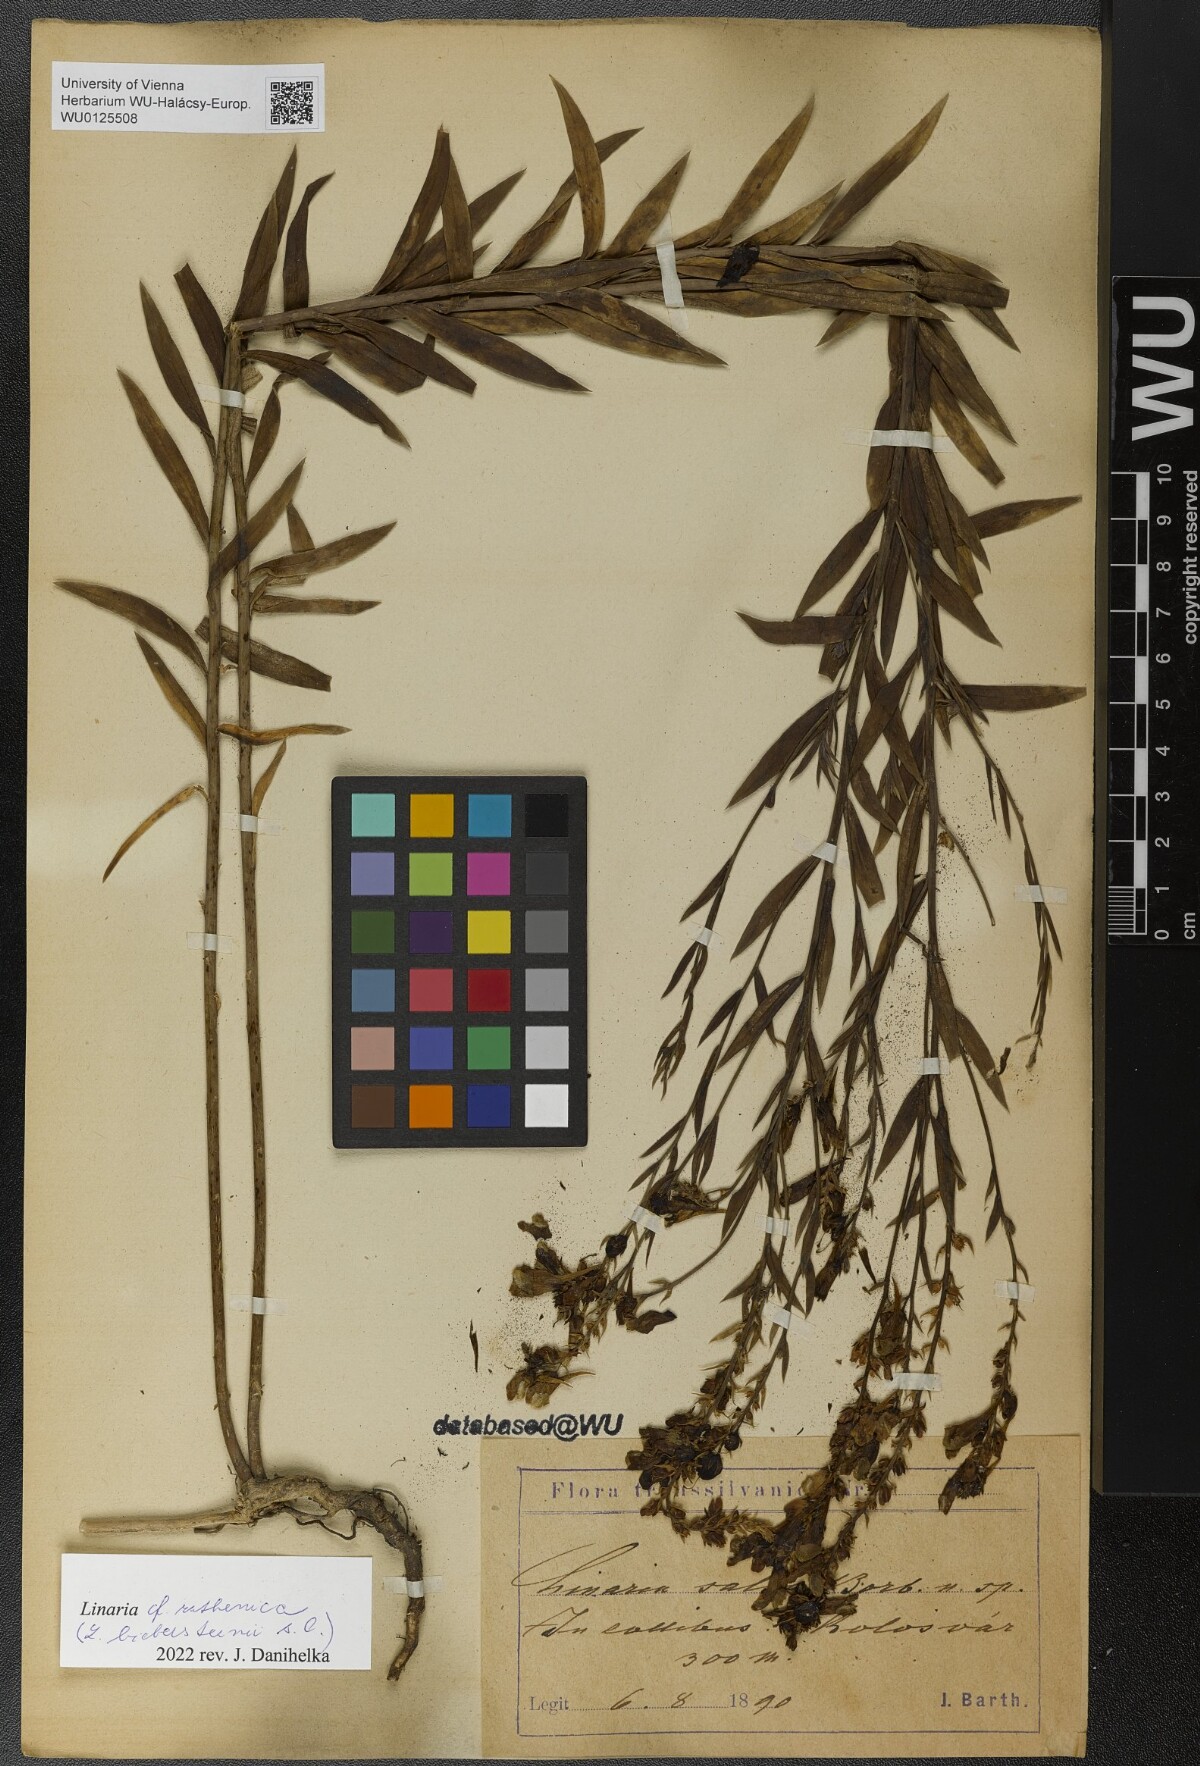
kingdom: Plantae
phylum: Tracheophyta
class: Magnoliopsida
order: Lamiales
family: Plantaginaceae
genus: Linaria
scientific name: Linaria biebersteinii
